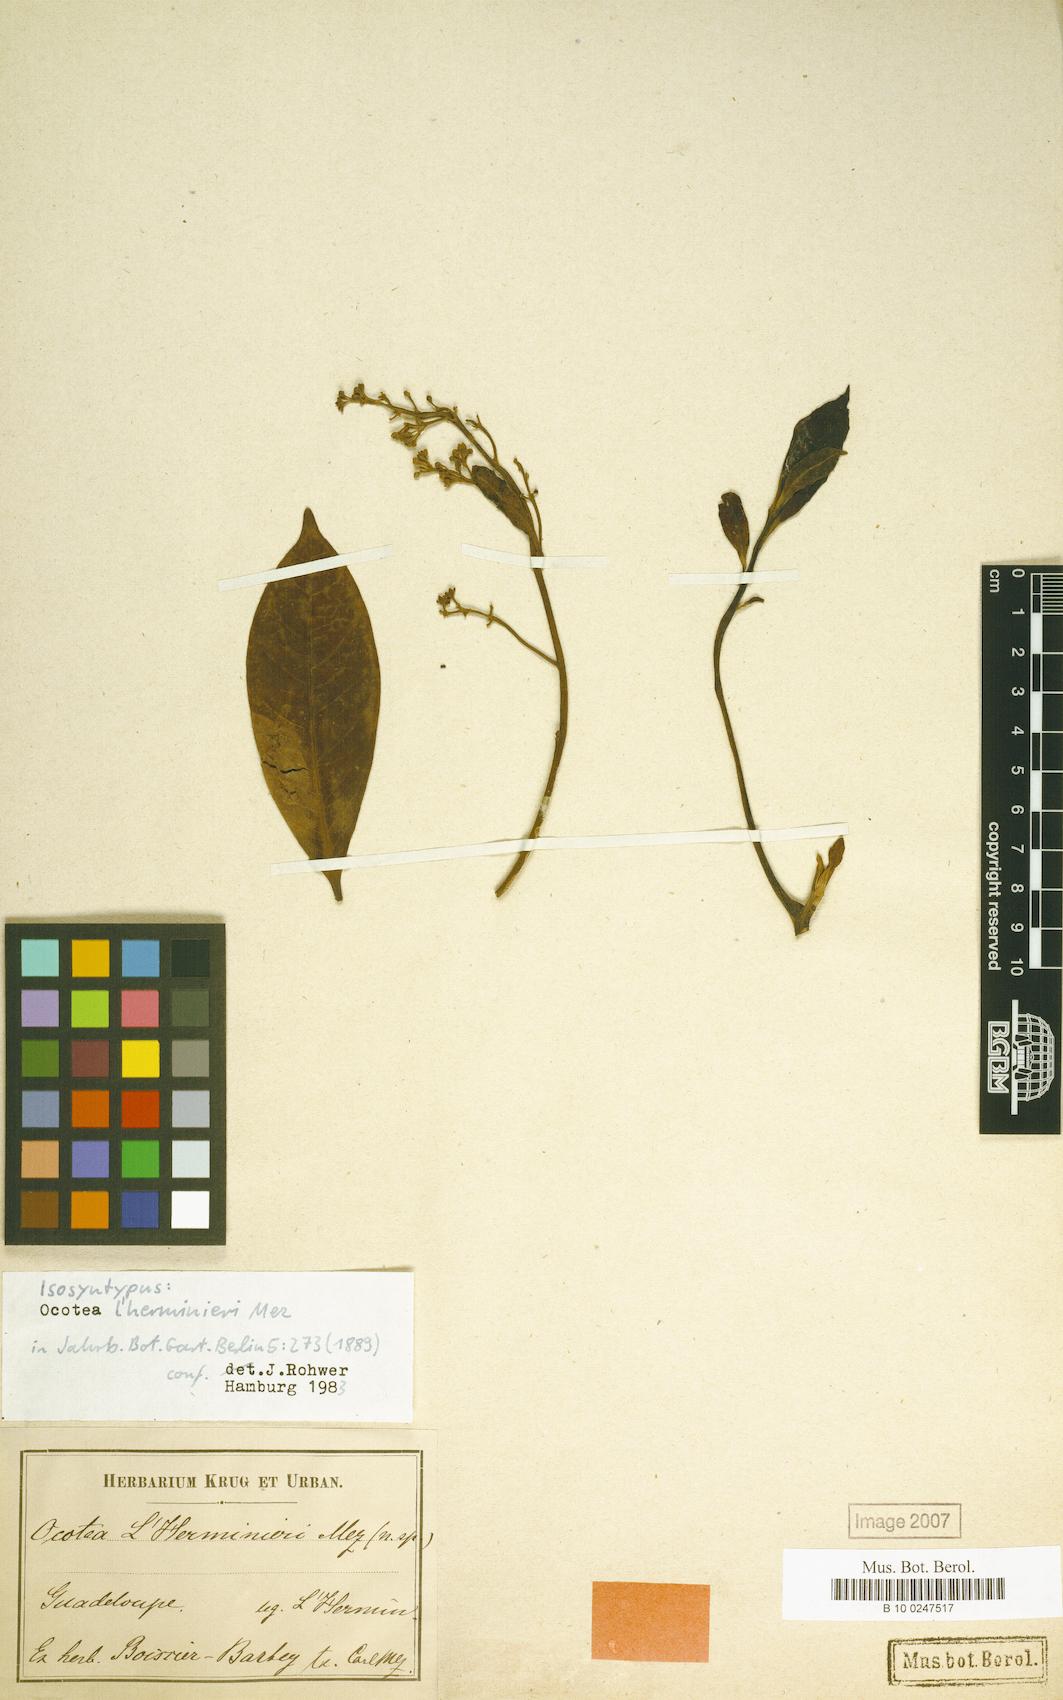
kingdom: Plantae
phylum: Tracheophyta
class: Magnoliopsida
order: Laurales
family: Lauraceae
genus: Ocotea
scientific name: Ocotea lherminieri
